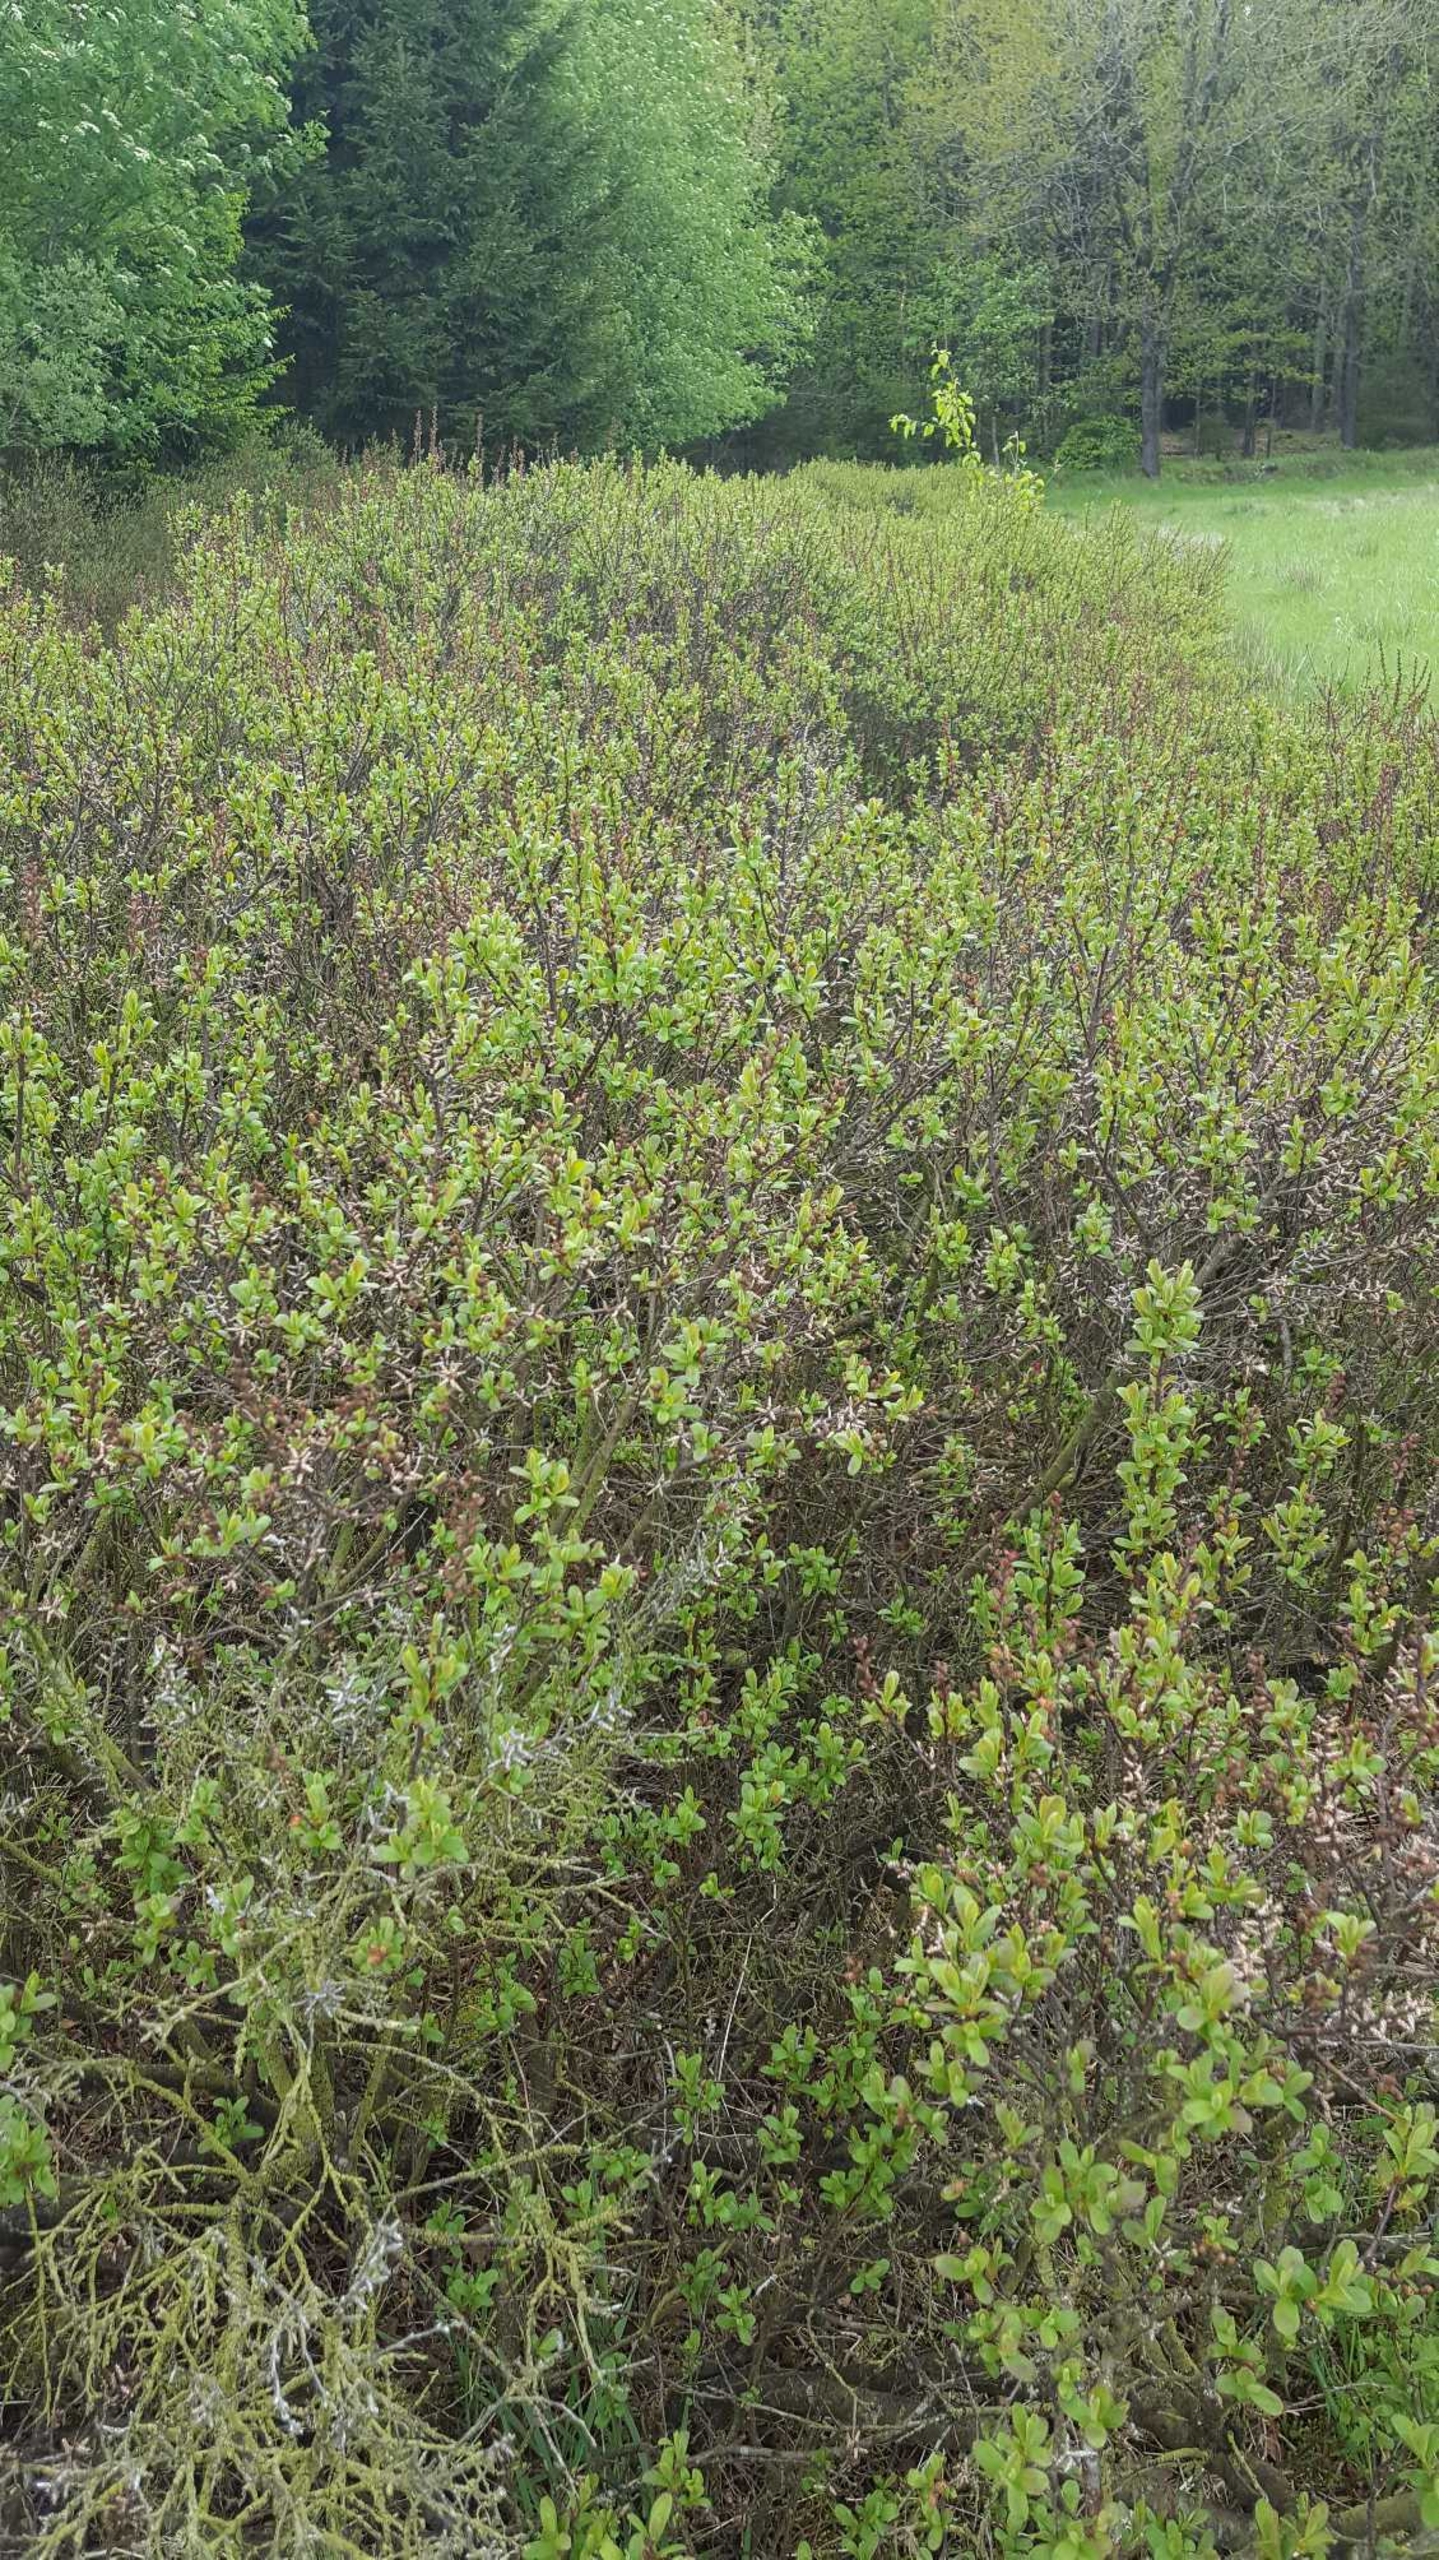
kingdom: Plantae
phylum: Tracheophyta
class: Magnoliopsida
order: Fagales
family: Myricaceae
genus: Myrica
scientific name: Myrica gale
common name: Pors
